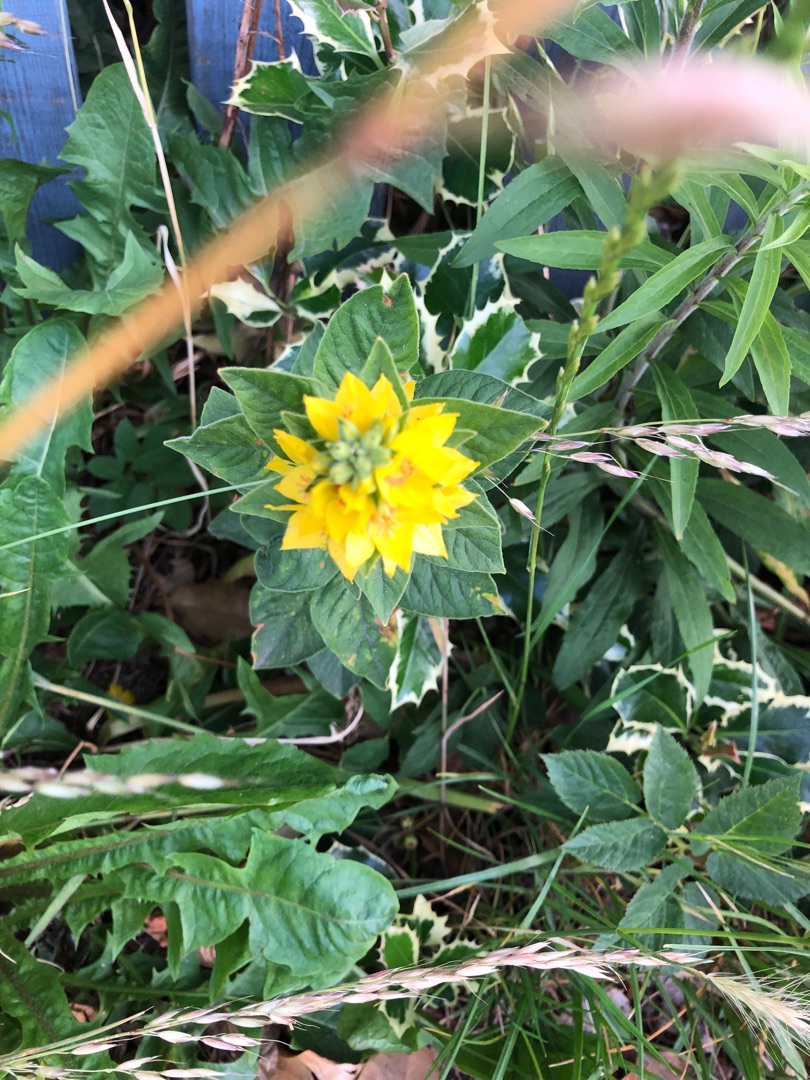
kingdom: Plantae
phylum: Tracheophyta
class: Magnoliopsida
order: Ericales
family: Primulaceae
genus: Lysimachia
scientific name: Lysimachia punctata
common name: Prikbladet fredløs
